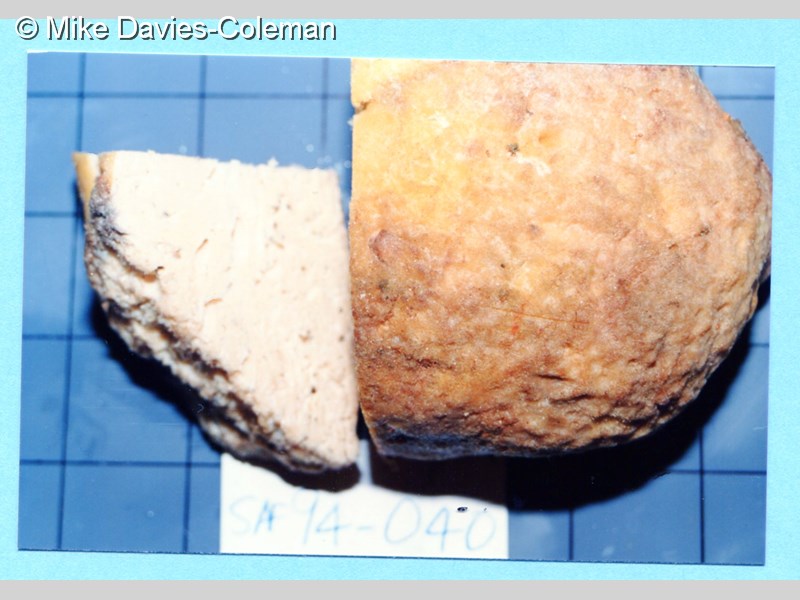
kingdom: Animalia
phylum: Porifera
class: Demospongiae
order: Tetractinellida
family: Ancorinidae
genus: Asteropus
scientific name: Asteropus
